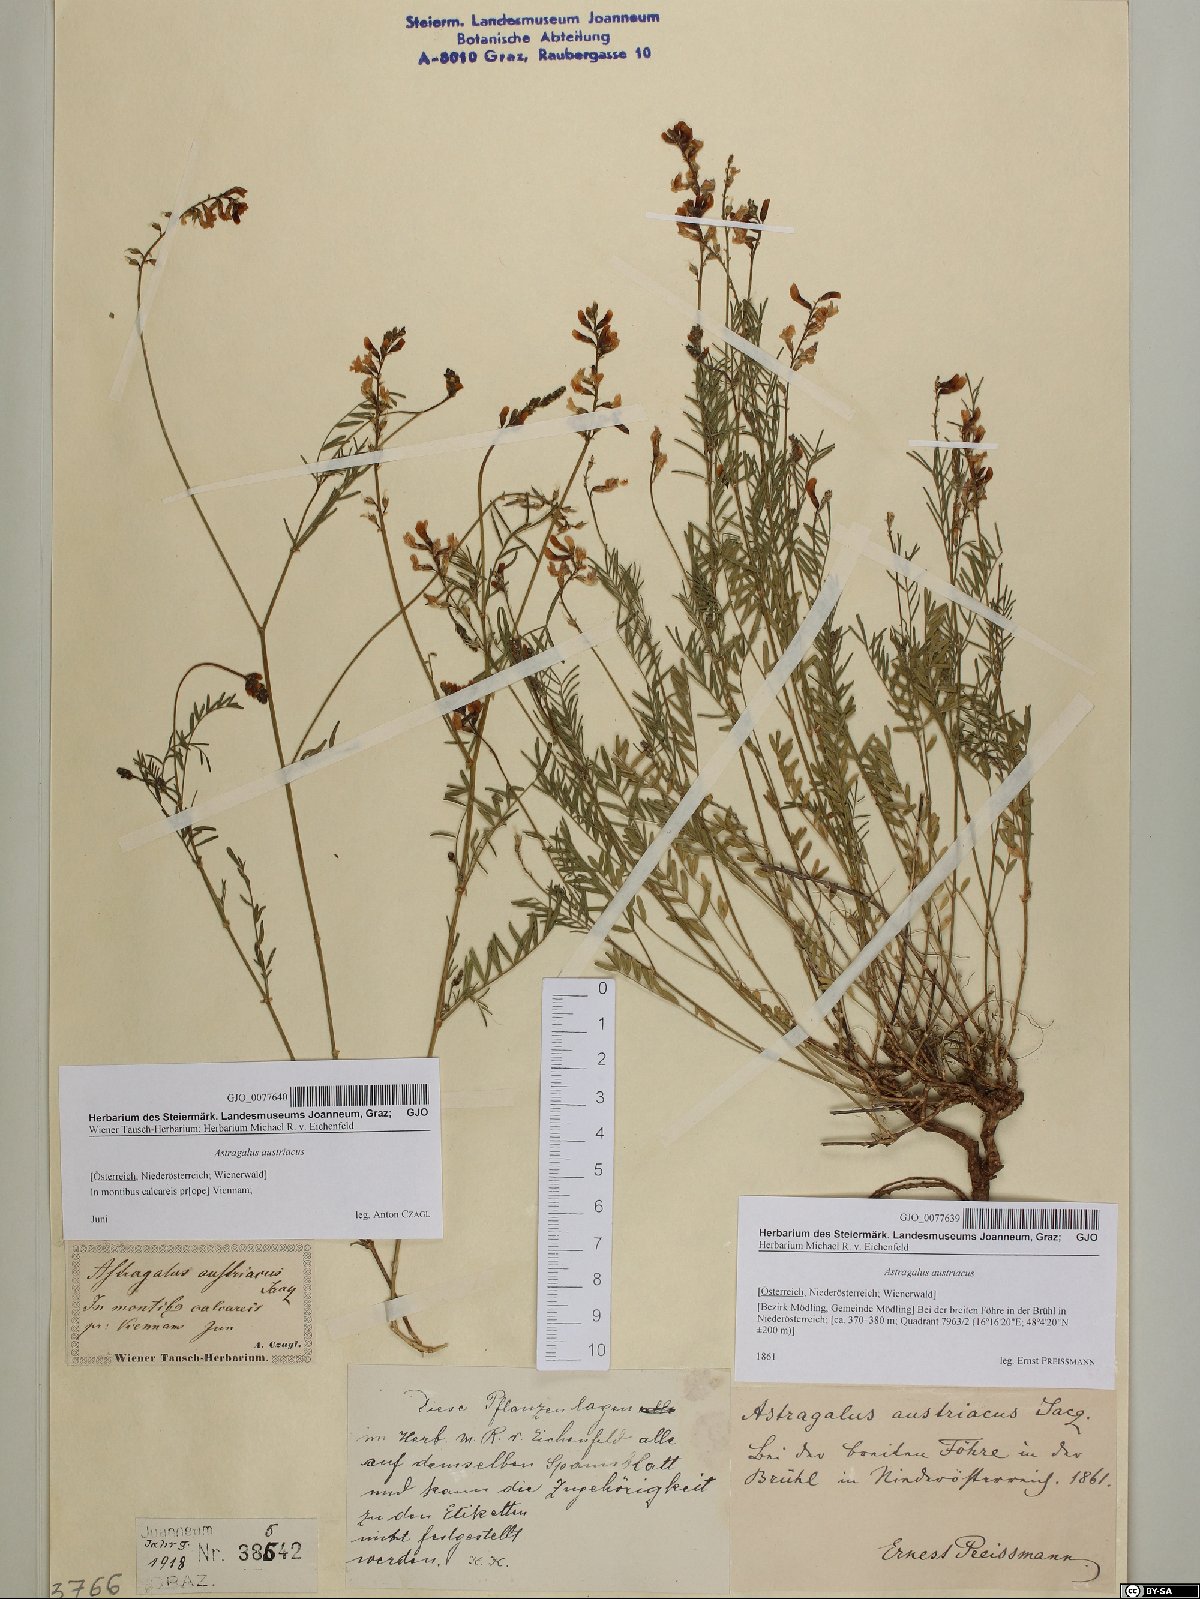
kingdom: Plantae
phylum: Tracheophyta
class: Magnoliopsida
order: Fabales
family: Fabaceae
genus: Astragalus
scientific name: Astragalus austriacus
